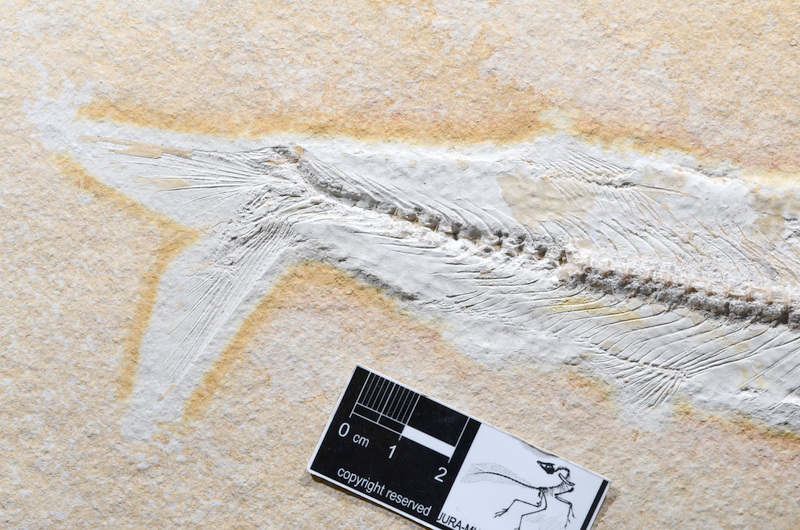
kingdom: Animalia
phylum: Chordata
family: Allothrissopidae
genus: Allothrissops
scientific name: Allothrissops mesogaster
